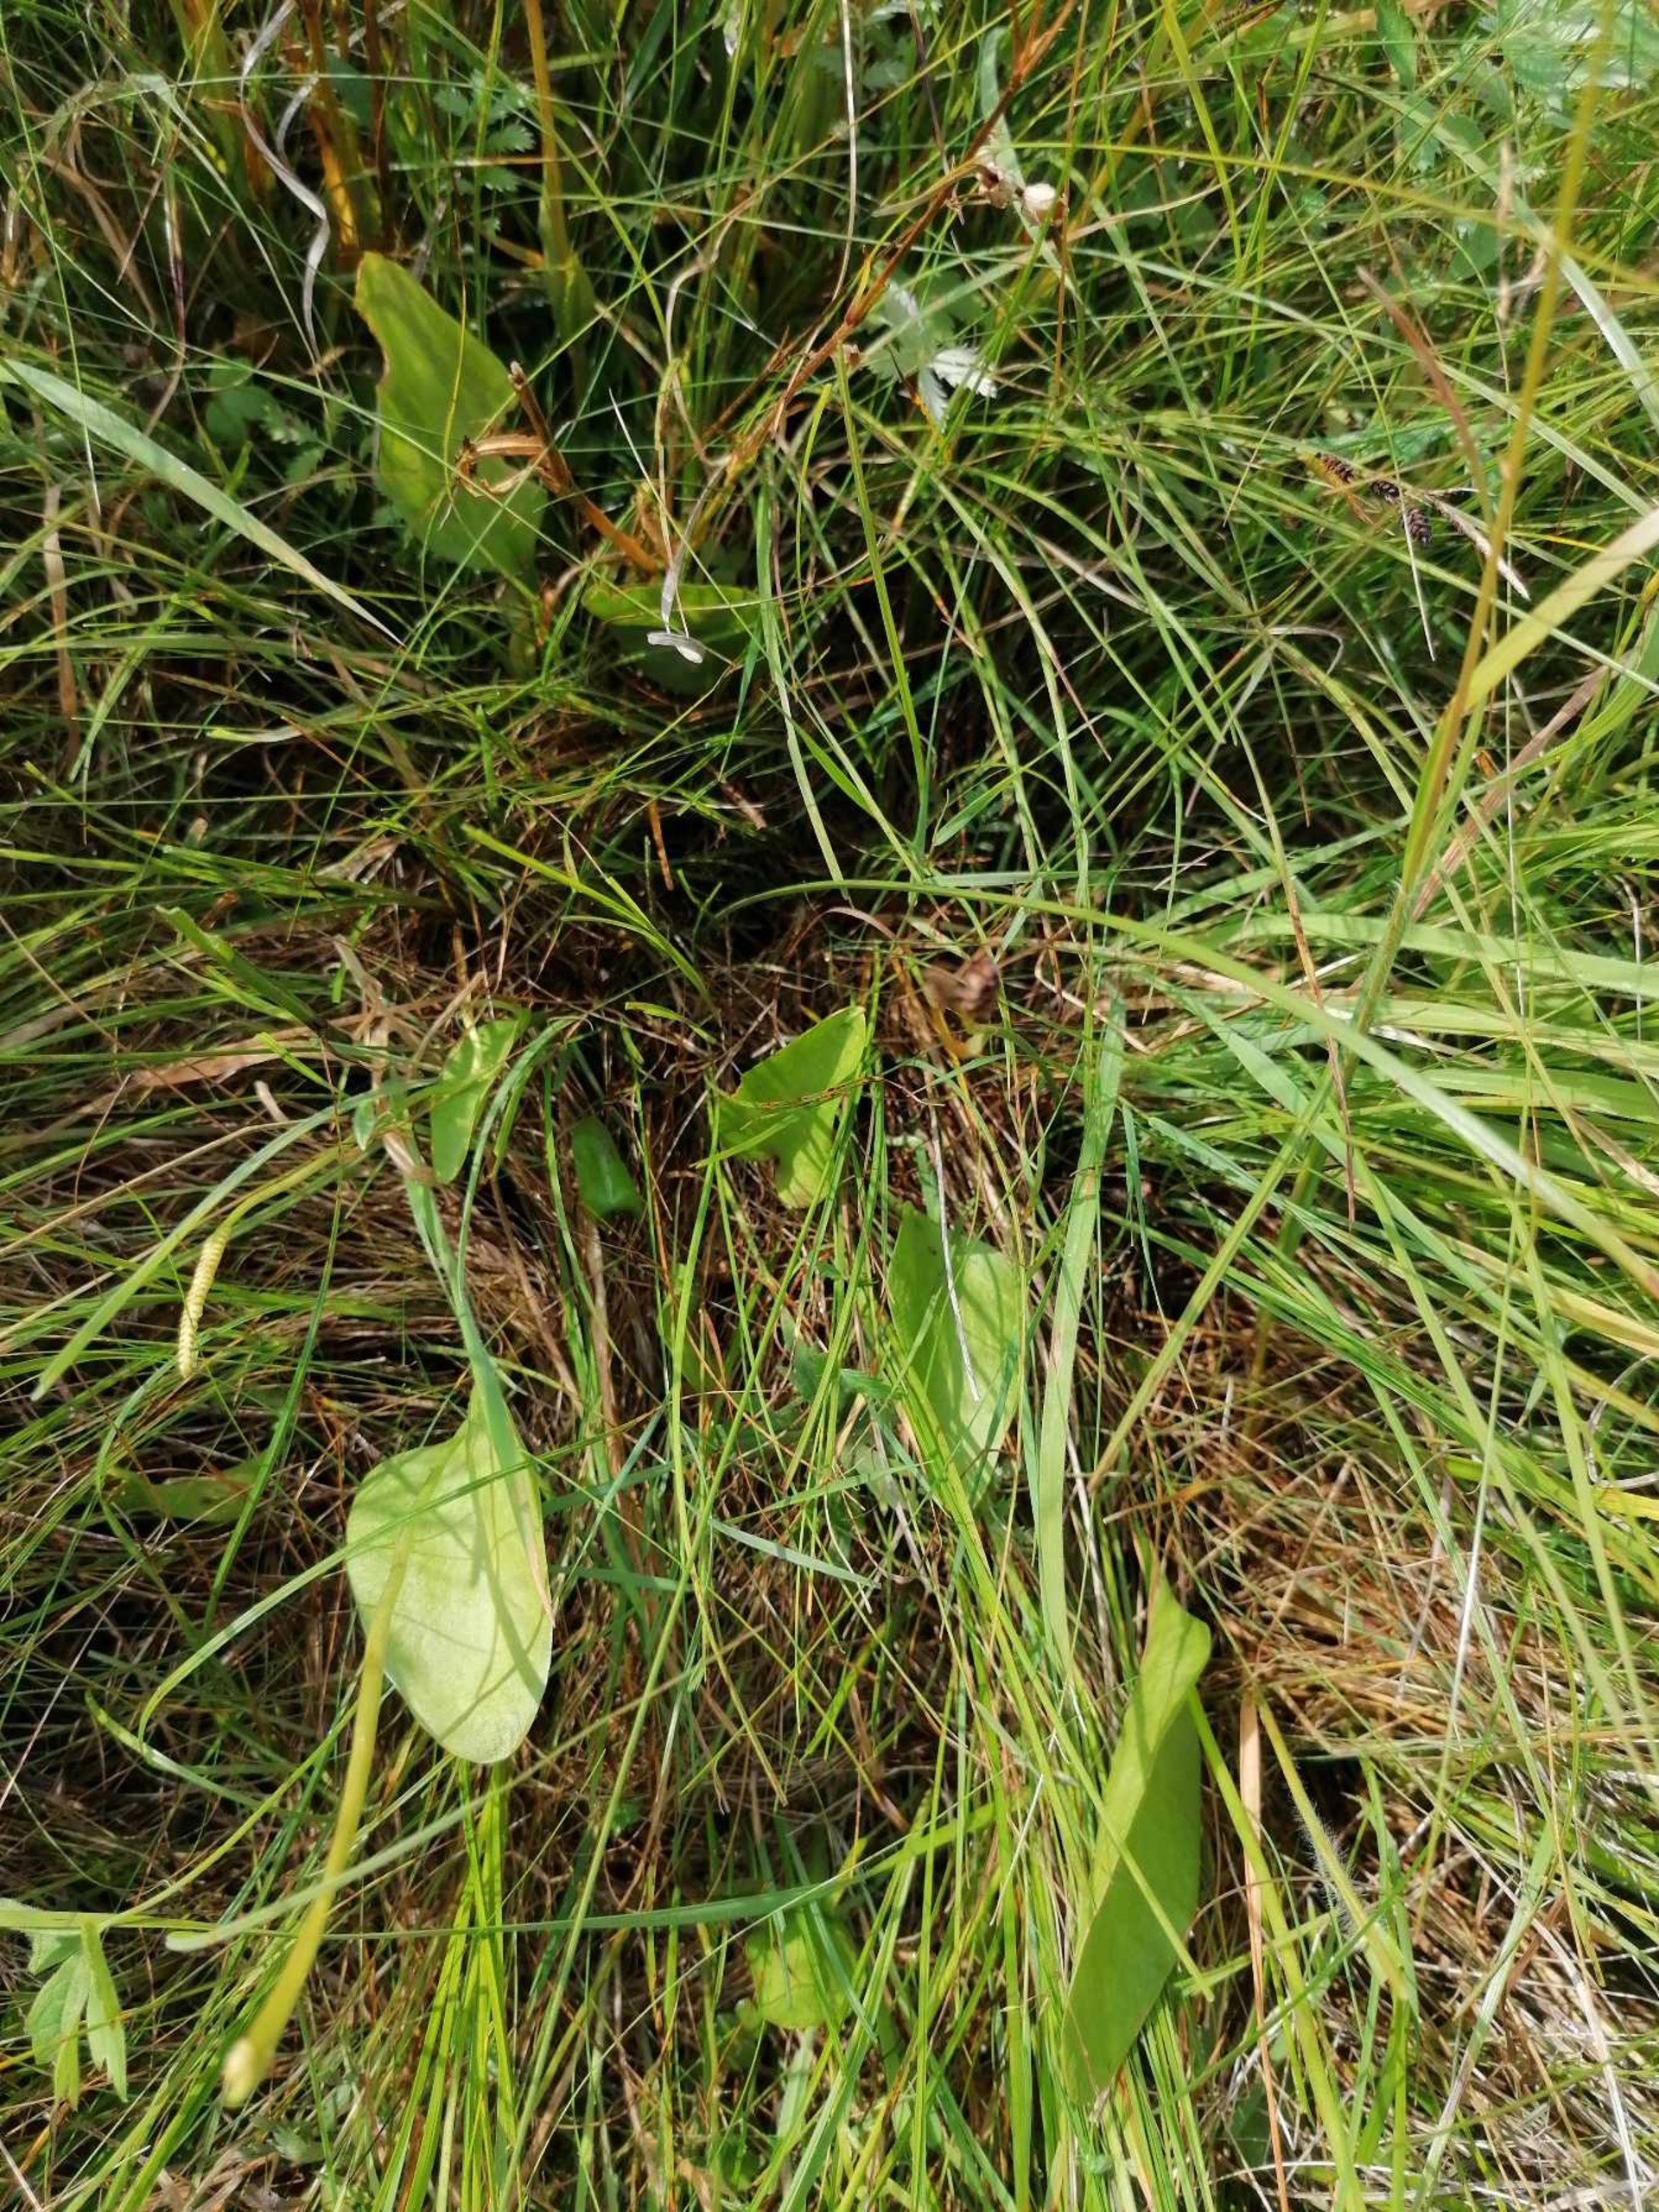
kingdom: Plantae
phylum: Tracheophyta
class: Polypodiopsida
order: Ophioglossales
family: Ophioglossaceae
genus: Ophioglossum
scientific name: Ophioglossum vulgatum
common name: Slangetunge
